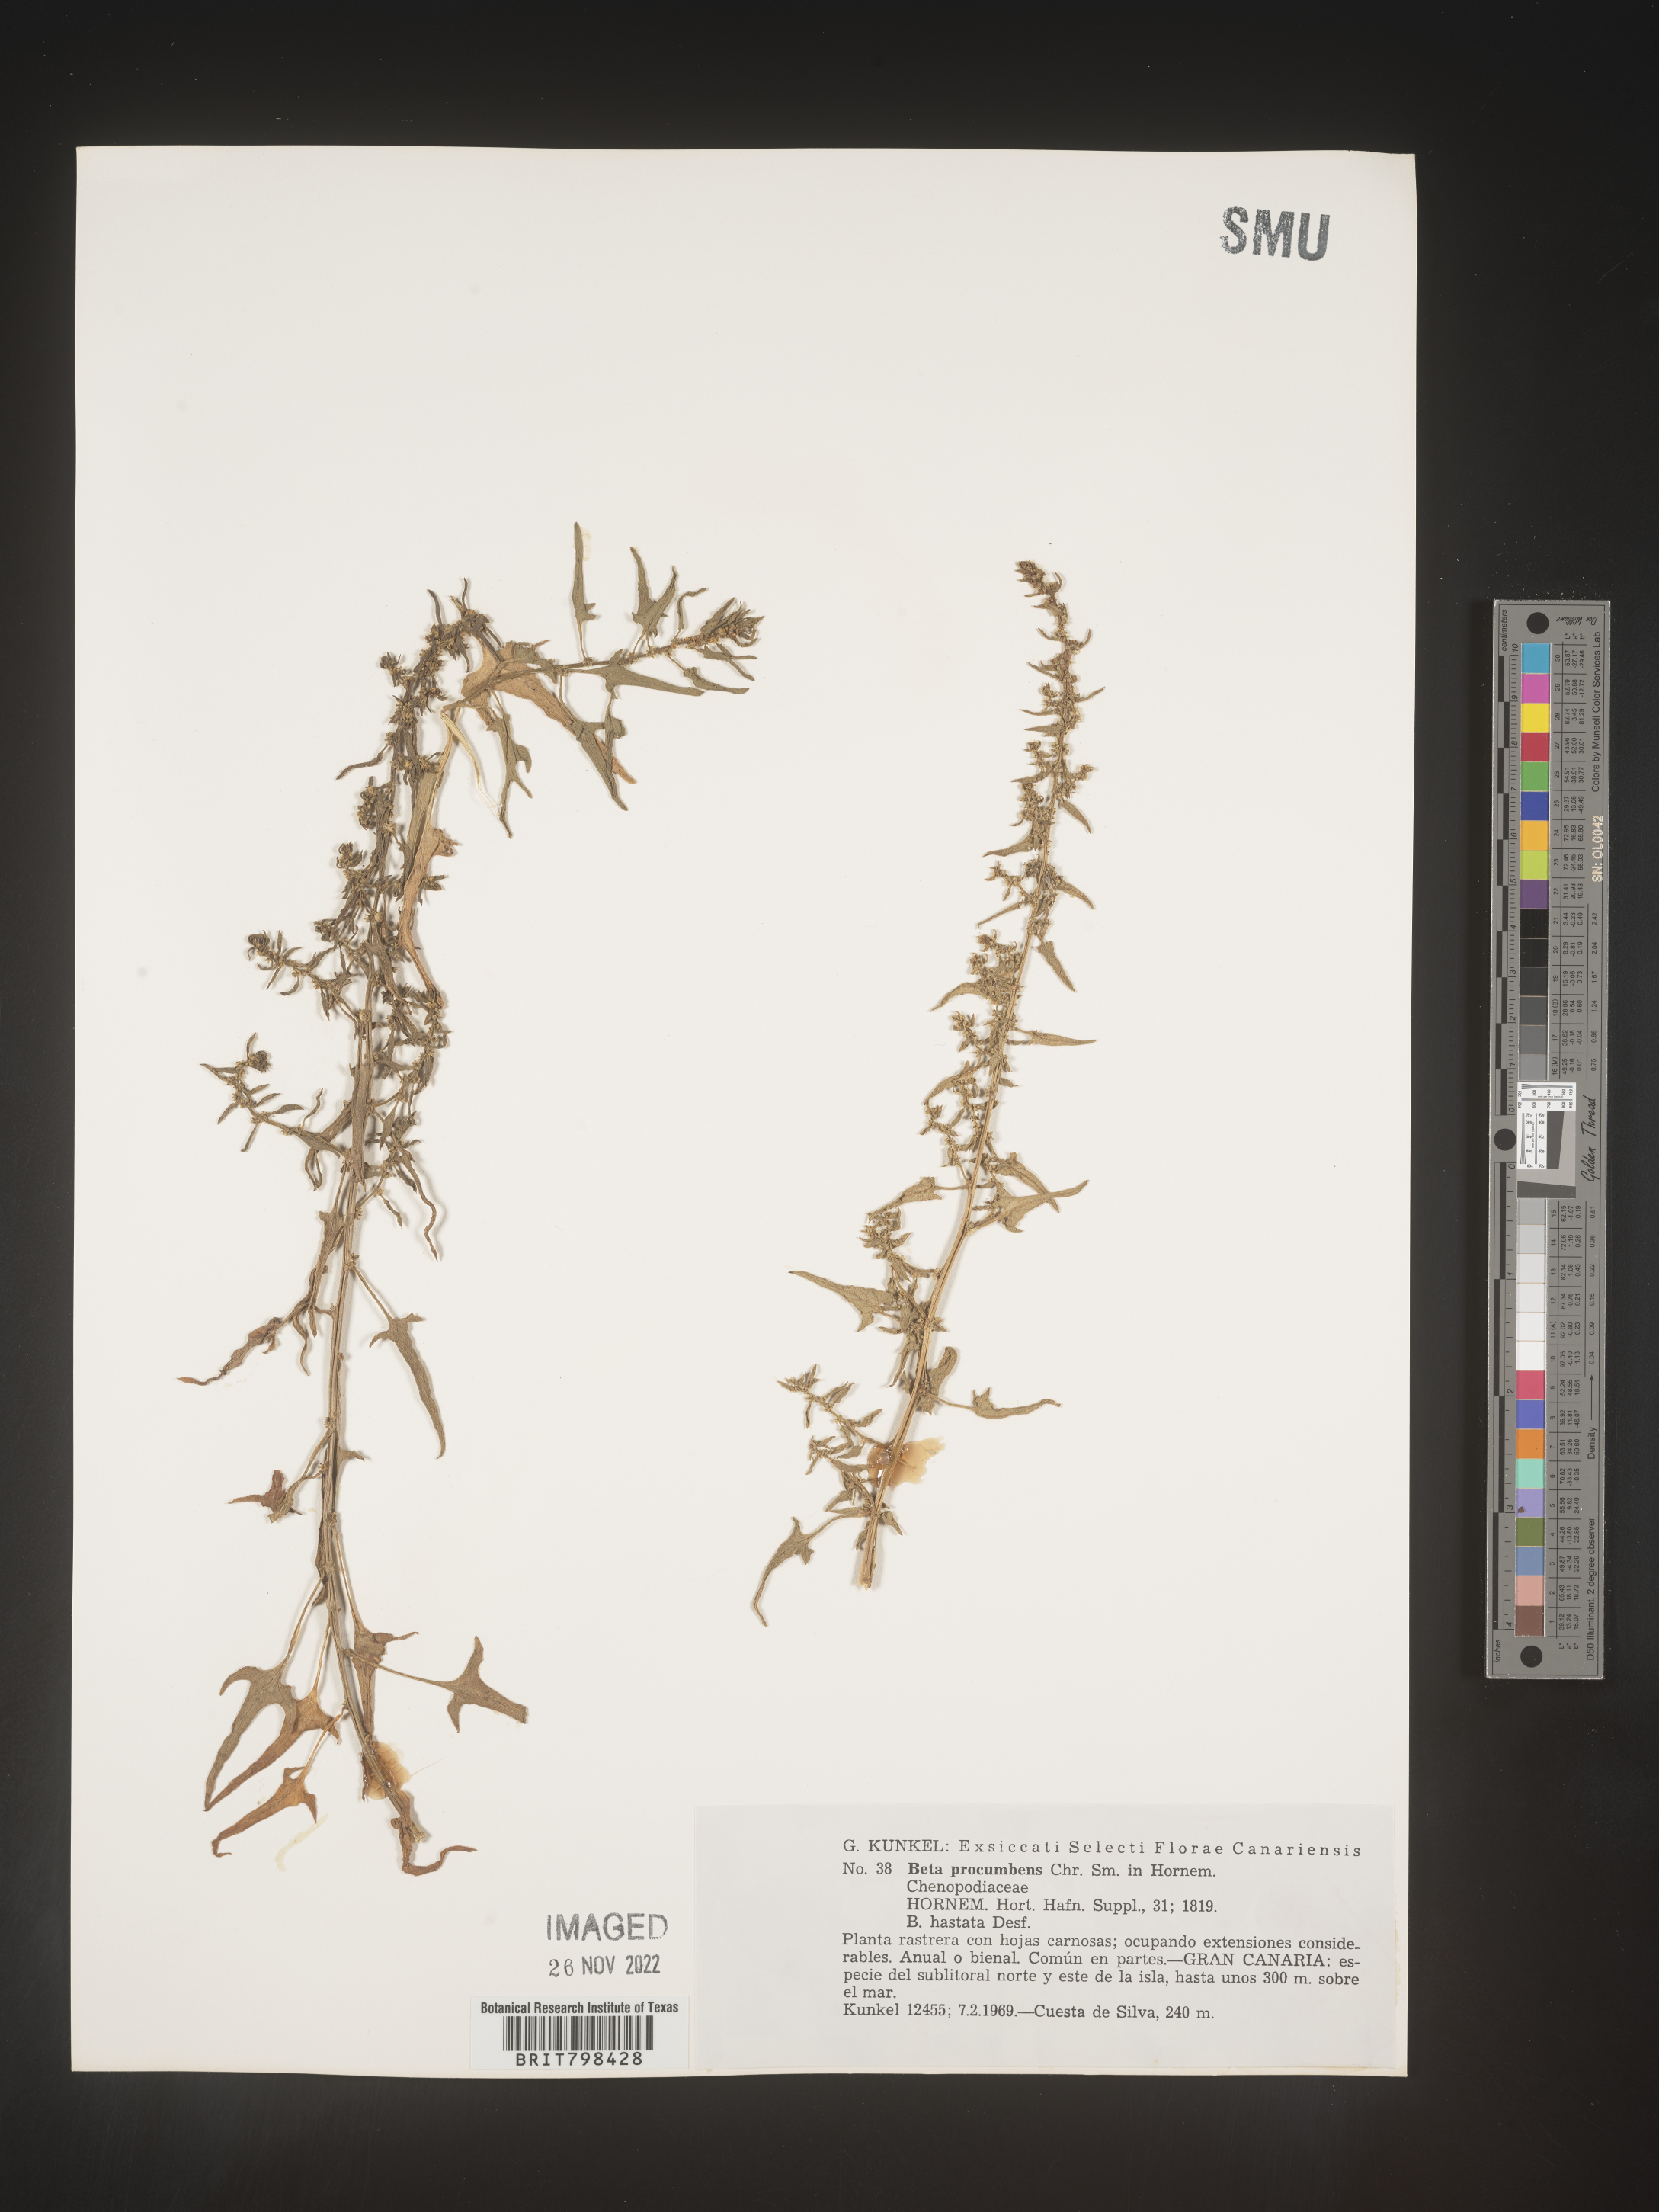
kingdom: Plantae
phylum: Tracheophyta
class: Magnoliopsida
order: Caryophyllales
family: Amaranthaceae
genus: Beta
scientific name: Beta
